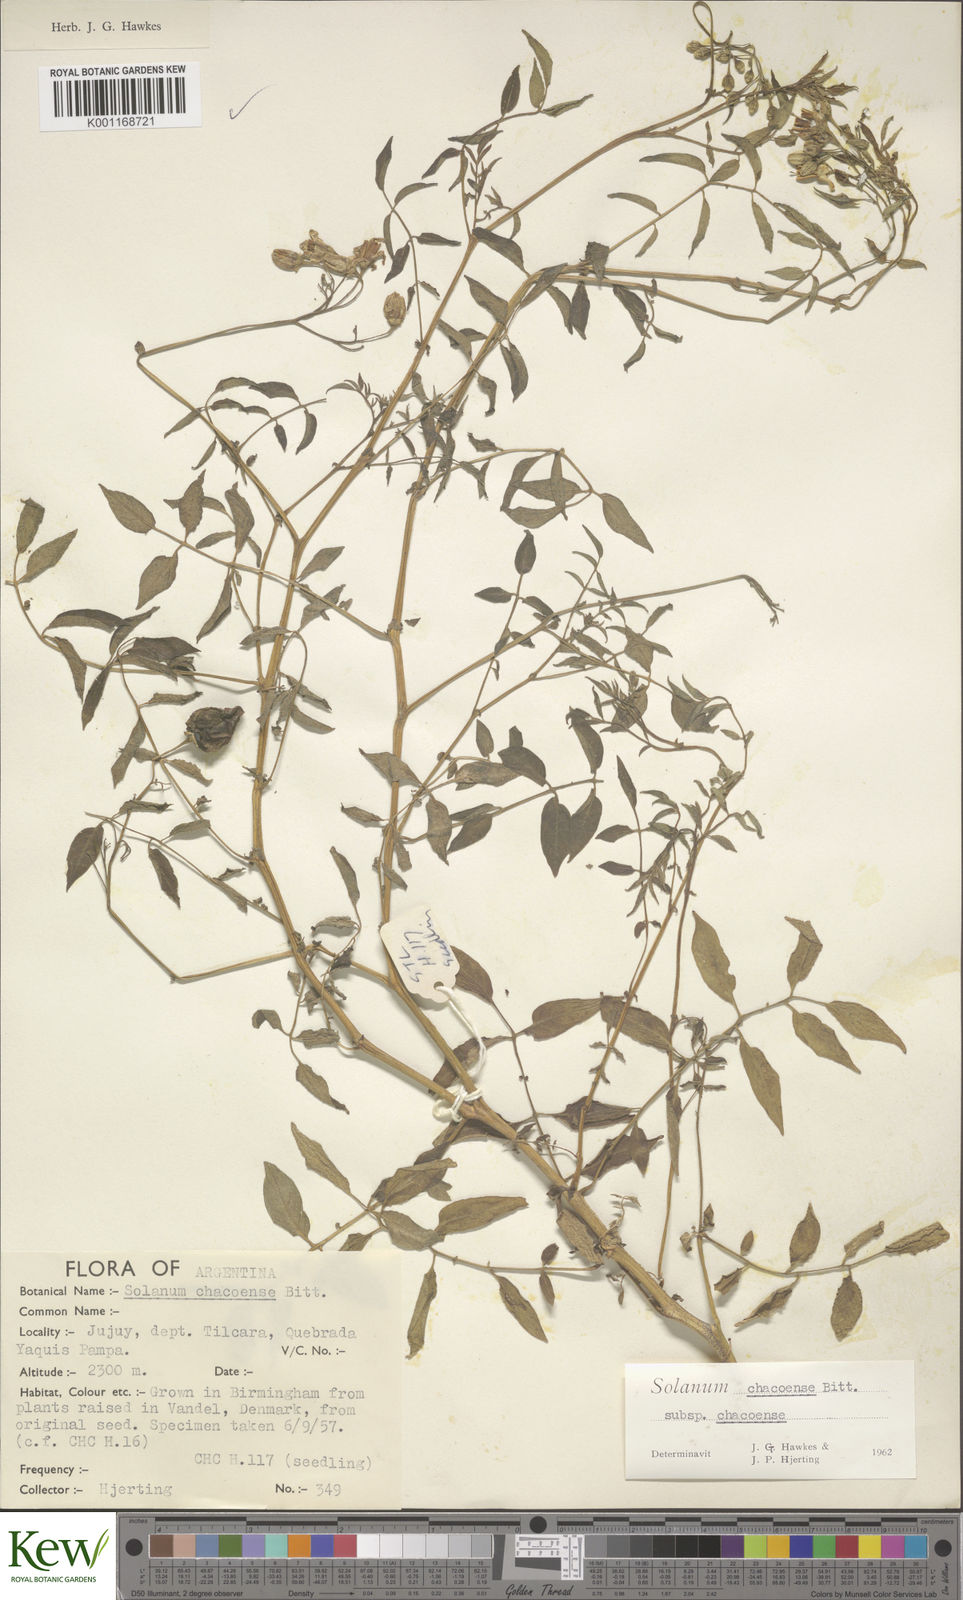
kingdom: Plantae
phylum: Tracheophyta
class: Magnoliopsida
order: Solanales
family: Solanaceae
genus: Solanum
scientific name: Solanum chacoense
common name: Chaco potato
